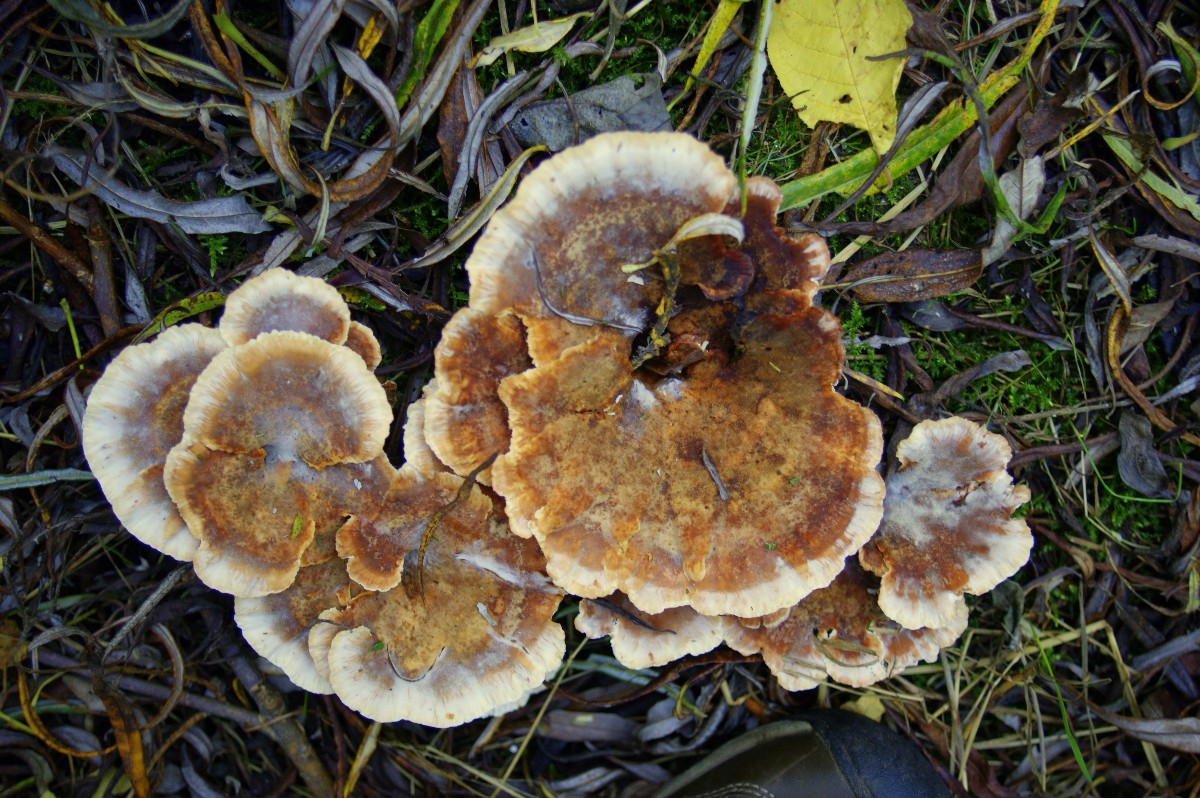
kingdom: Fungi
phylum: Basidiomycota
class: Agaricomycetes
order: Polyporales
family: Podoscyphaceae
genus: Abortiporus
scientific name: Abortiporus biennis
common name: rødmende pjalteporesvamp
